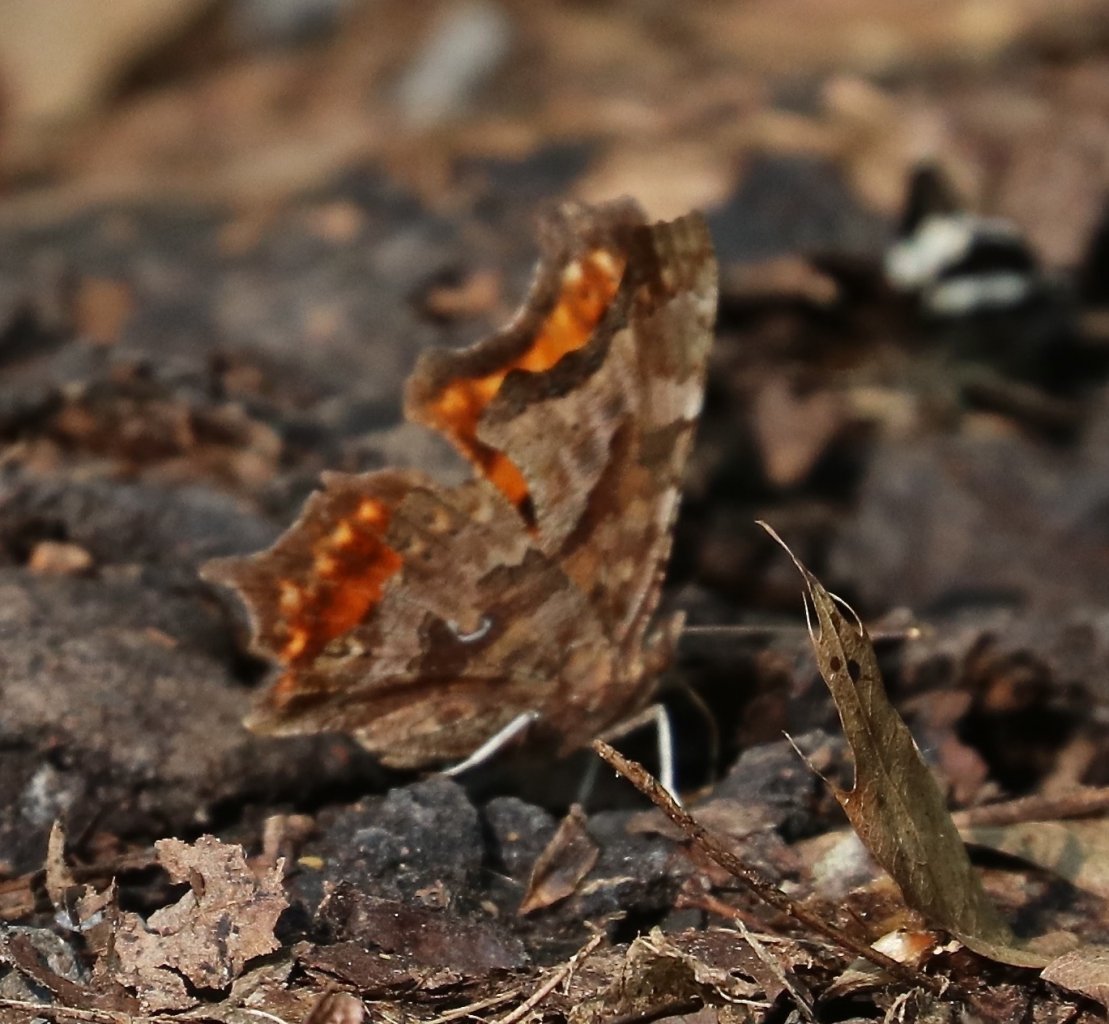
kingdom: Animalia
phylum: Arthropoda
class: Insecta
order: Lepidoptera
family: Nymphalidae
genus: Polygonia
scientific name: Polygonia interrogationis
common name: Question Mark
